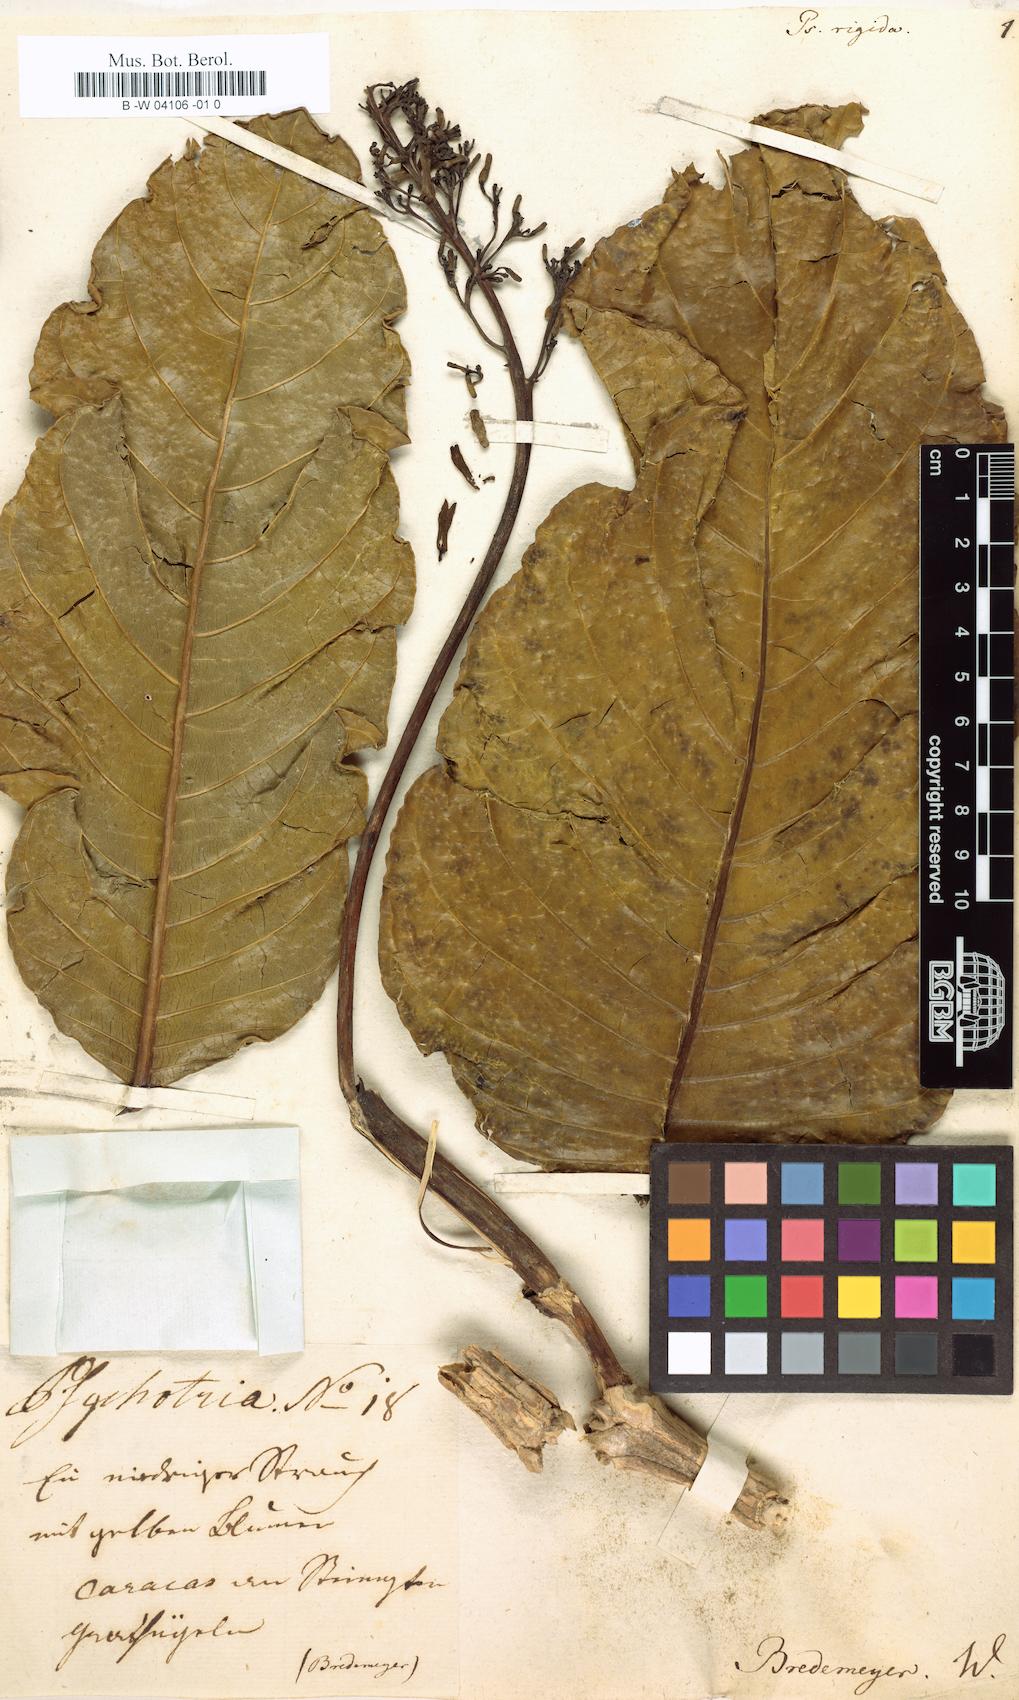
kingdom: Plantae
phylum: Tracheophyta
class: Magnoliopsida
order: Gentianales
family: Rubiaceae
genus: Palicourea
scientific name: Palicourea rigida
